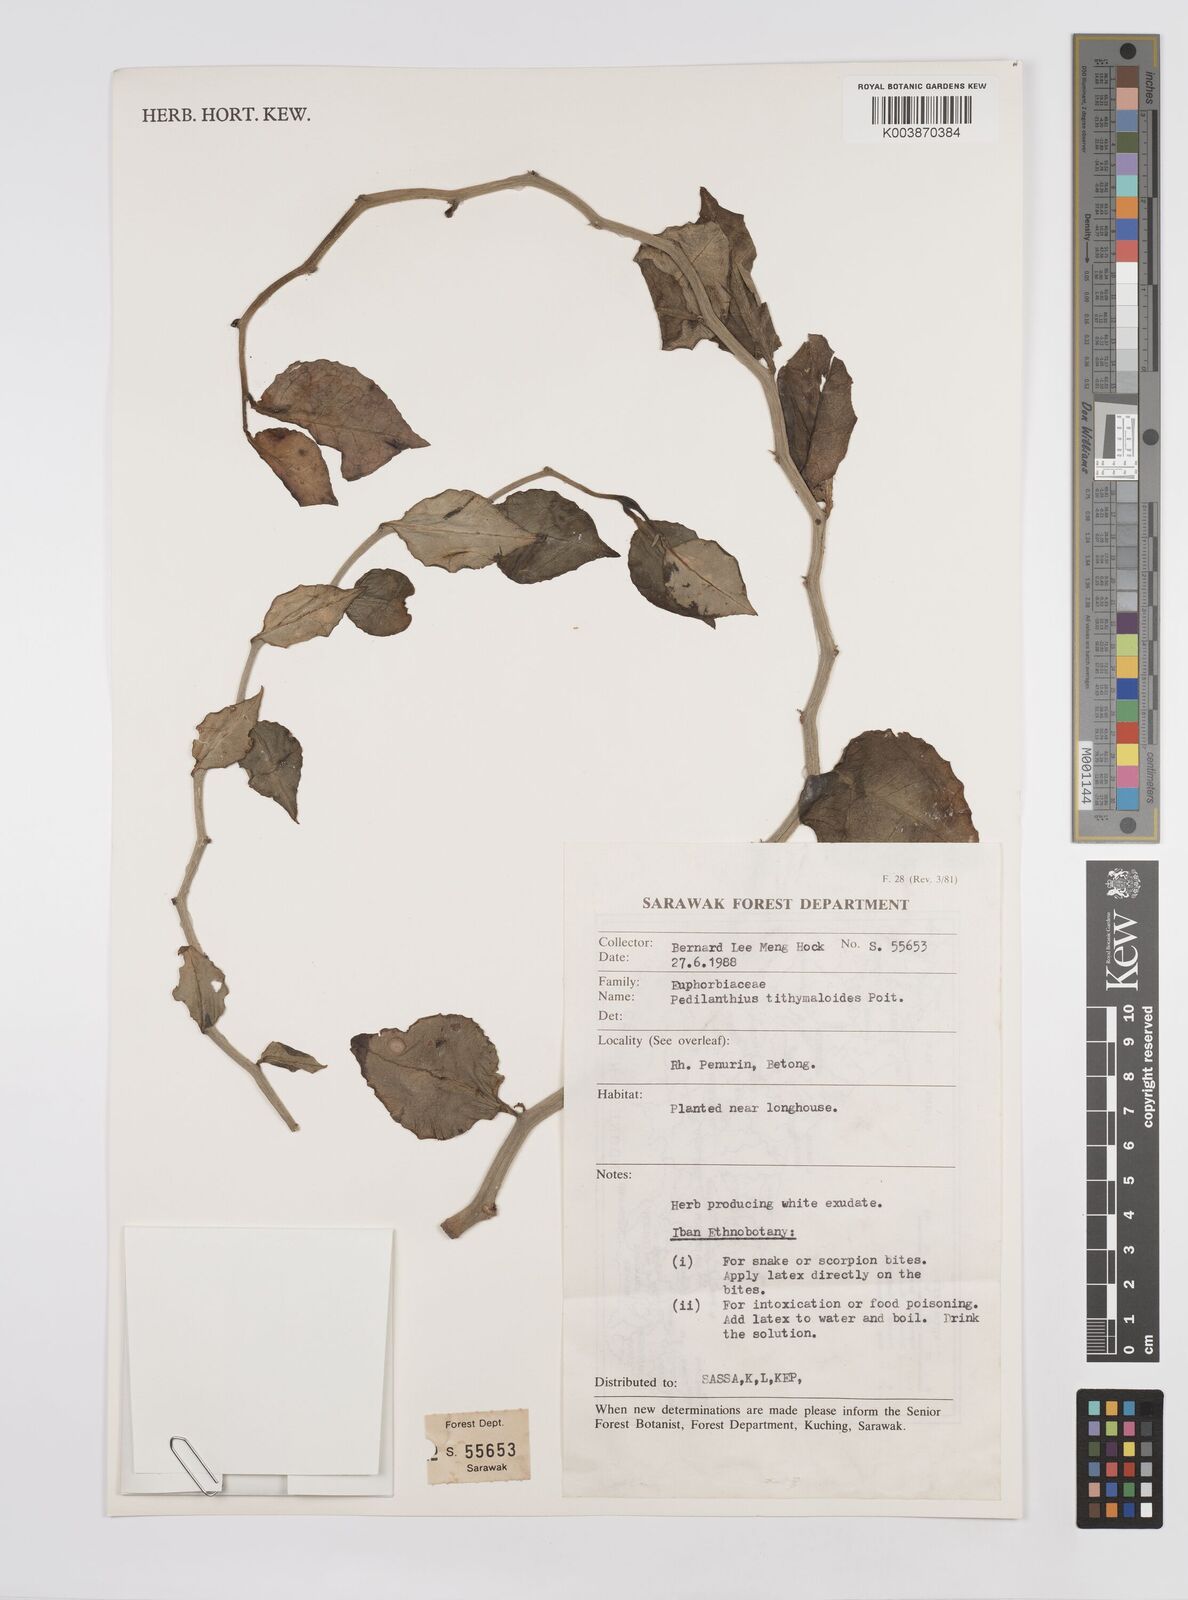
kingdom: Plantae
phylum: Tracheophyta
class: Magnoliopsida
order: Malpighiales
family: Euphorbiaceae
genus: Euphorbia
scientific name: Euphorbia tithymaloides
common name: Slipperplant
